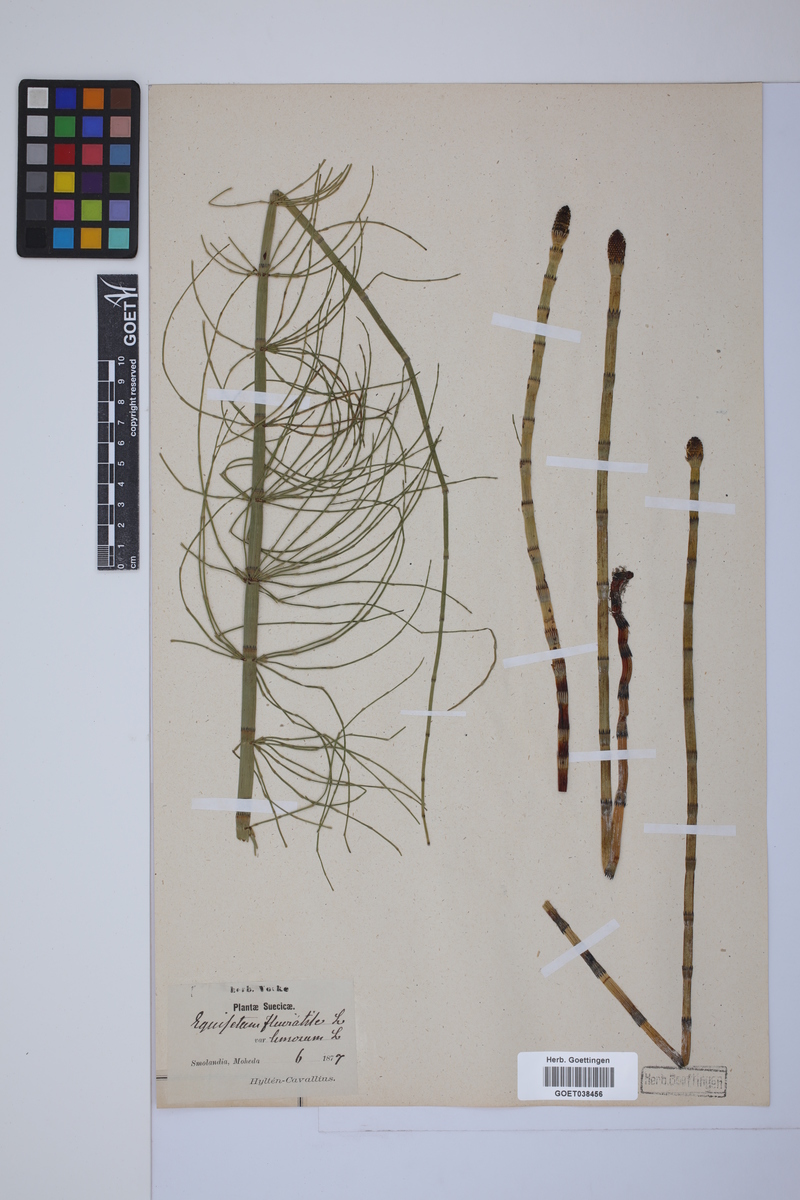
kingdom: Plantae
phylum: Tracheophyta
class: Polypodiopsida
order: Equisetales
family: Equisetaceae
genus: Equisetum
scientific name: Equisetum fluviatile
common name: Water horsetail
